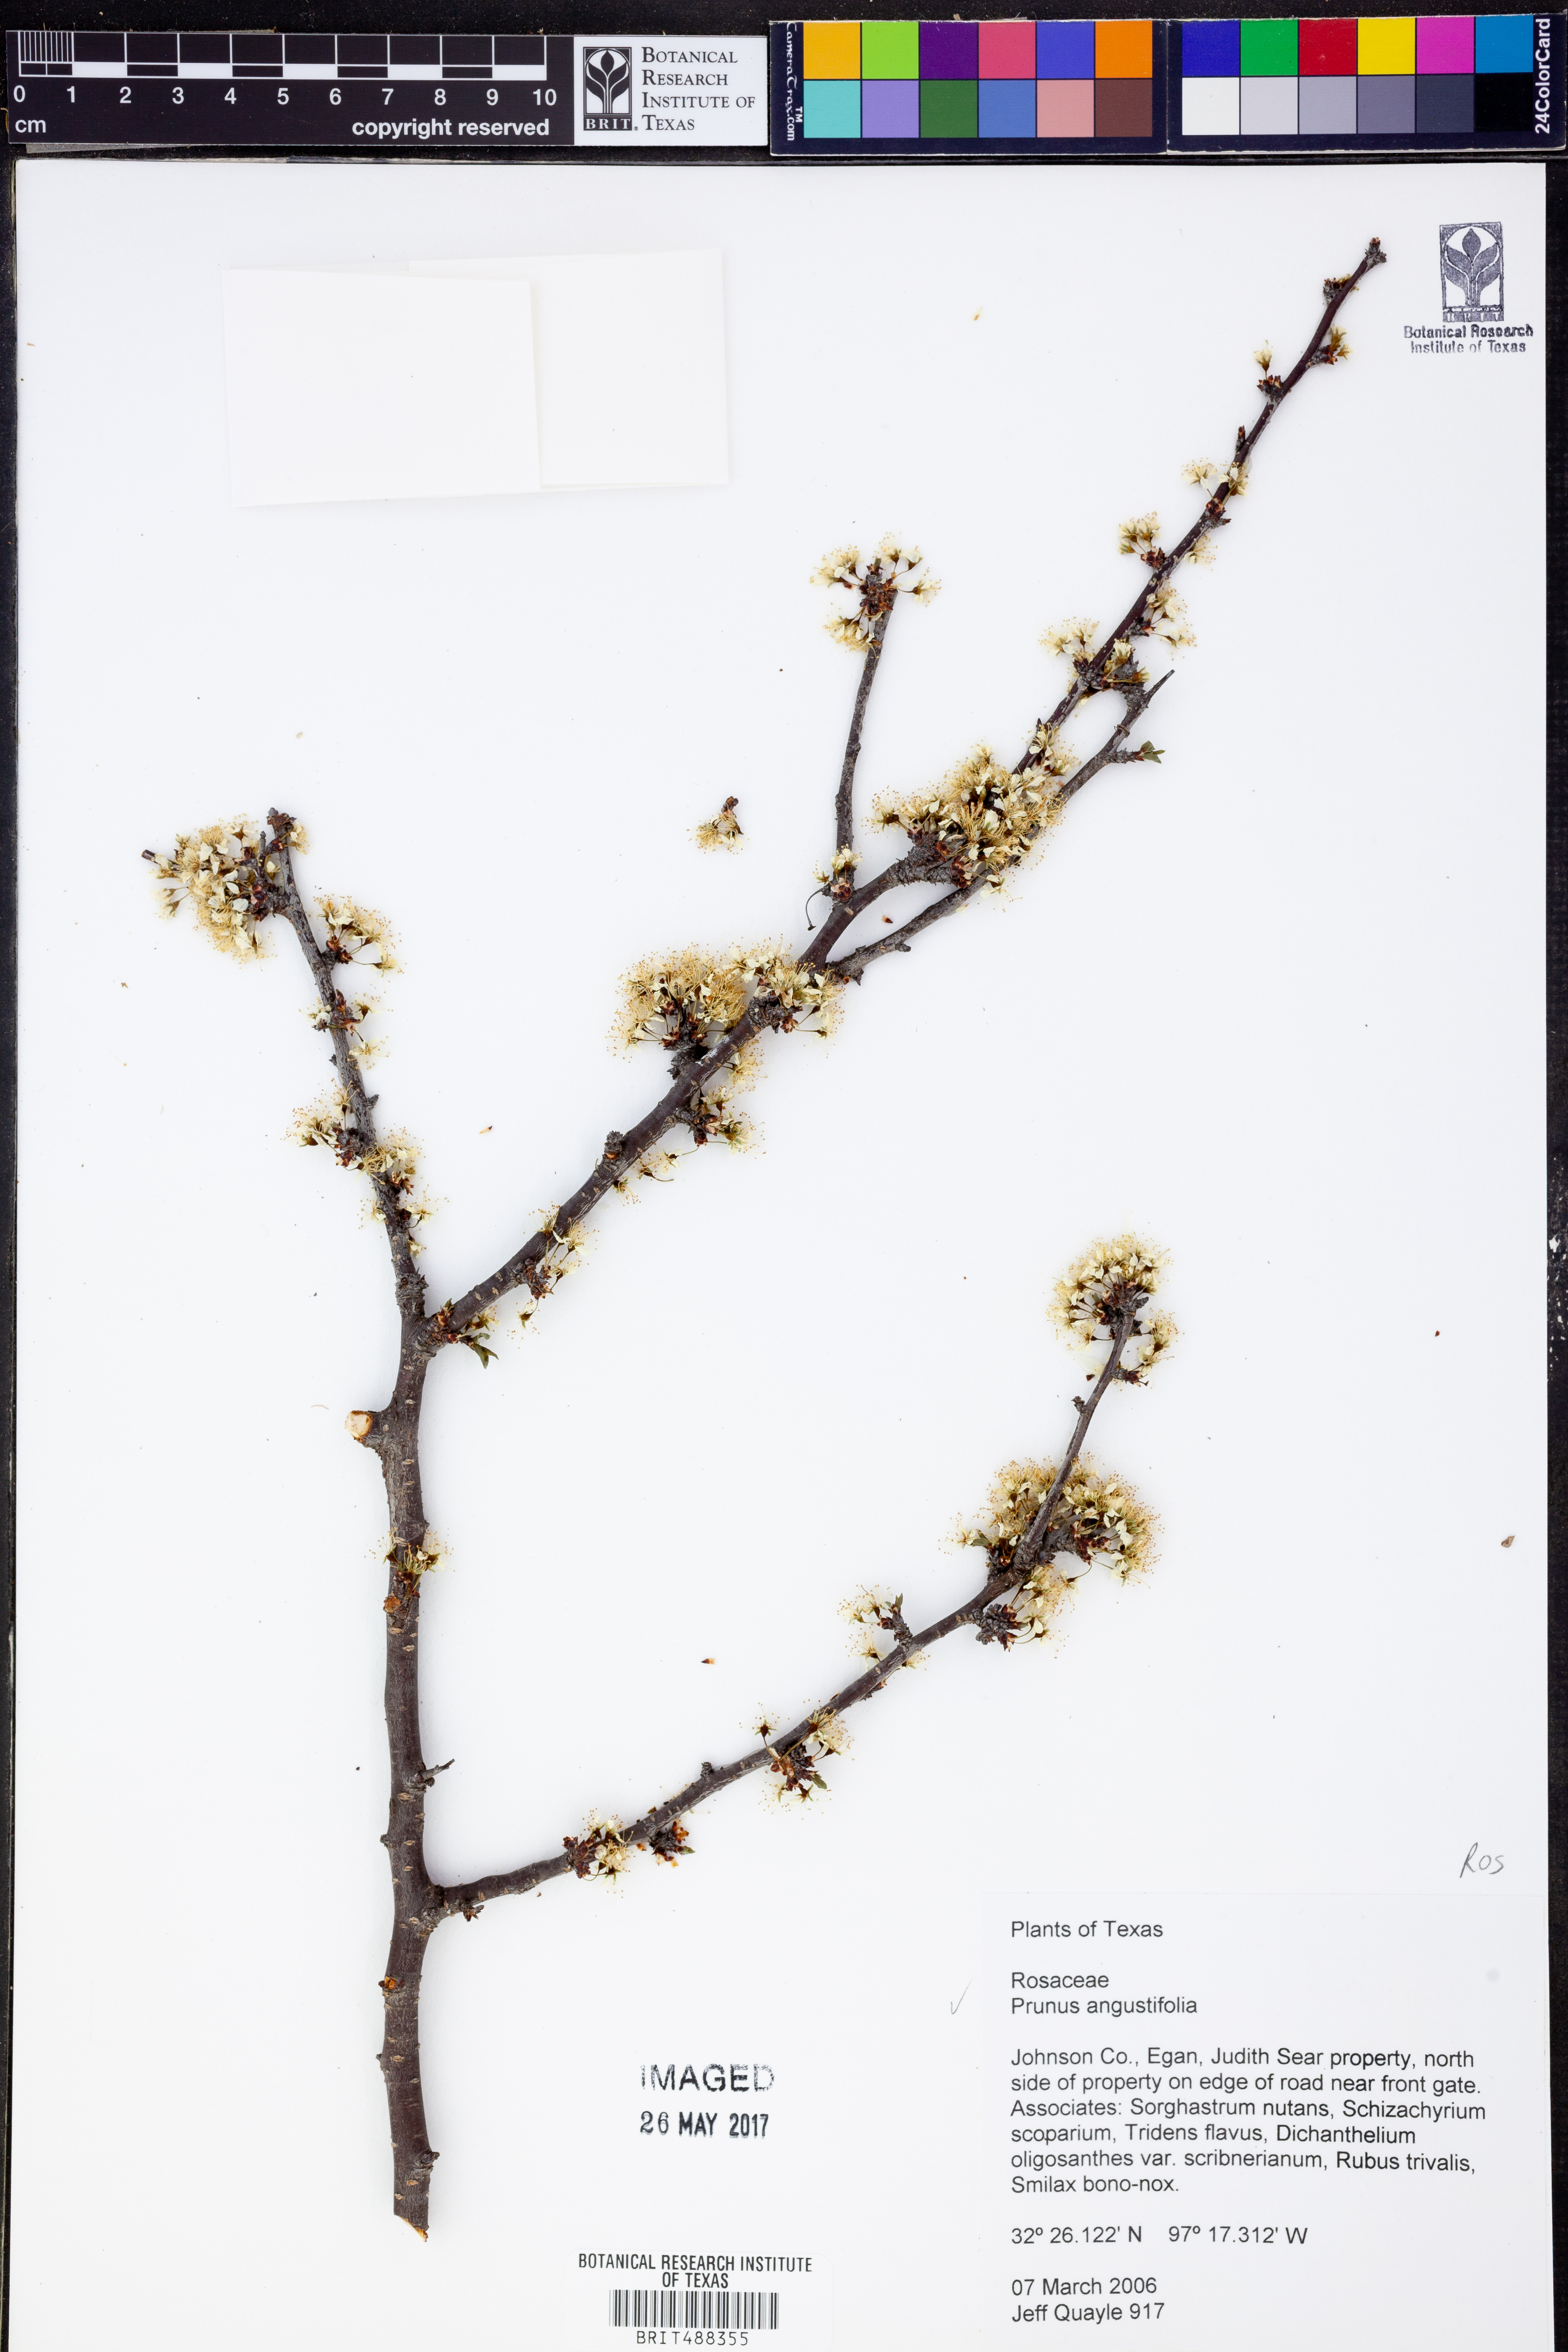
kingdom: Plantae
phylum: Tracheophyta
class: Magnoliopsida
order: Rosales
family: Rosaceae
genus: Prunus
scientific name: Prunus angustifolia
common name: Cherokee plum
